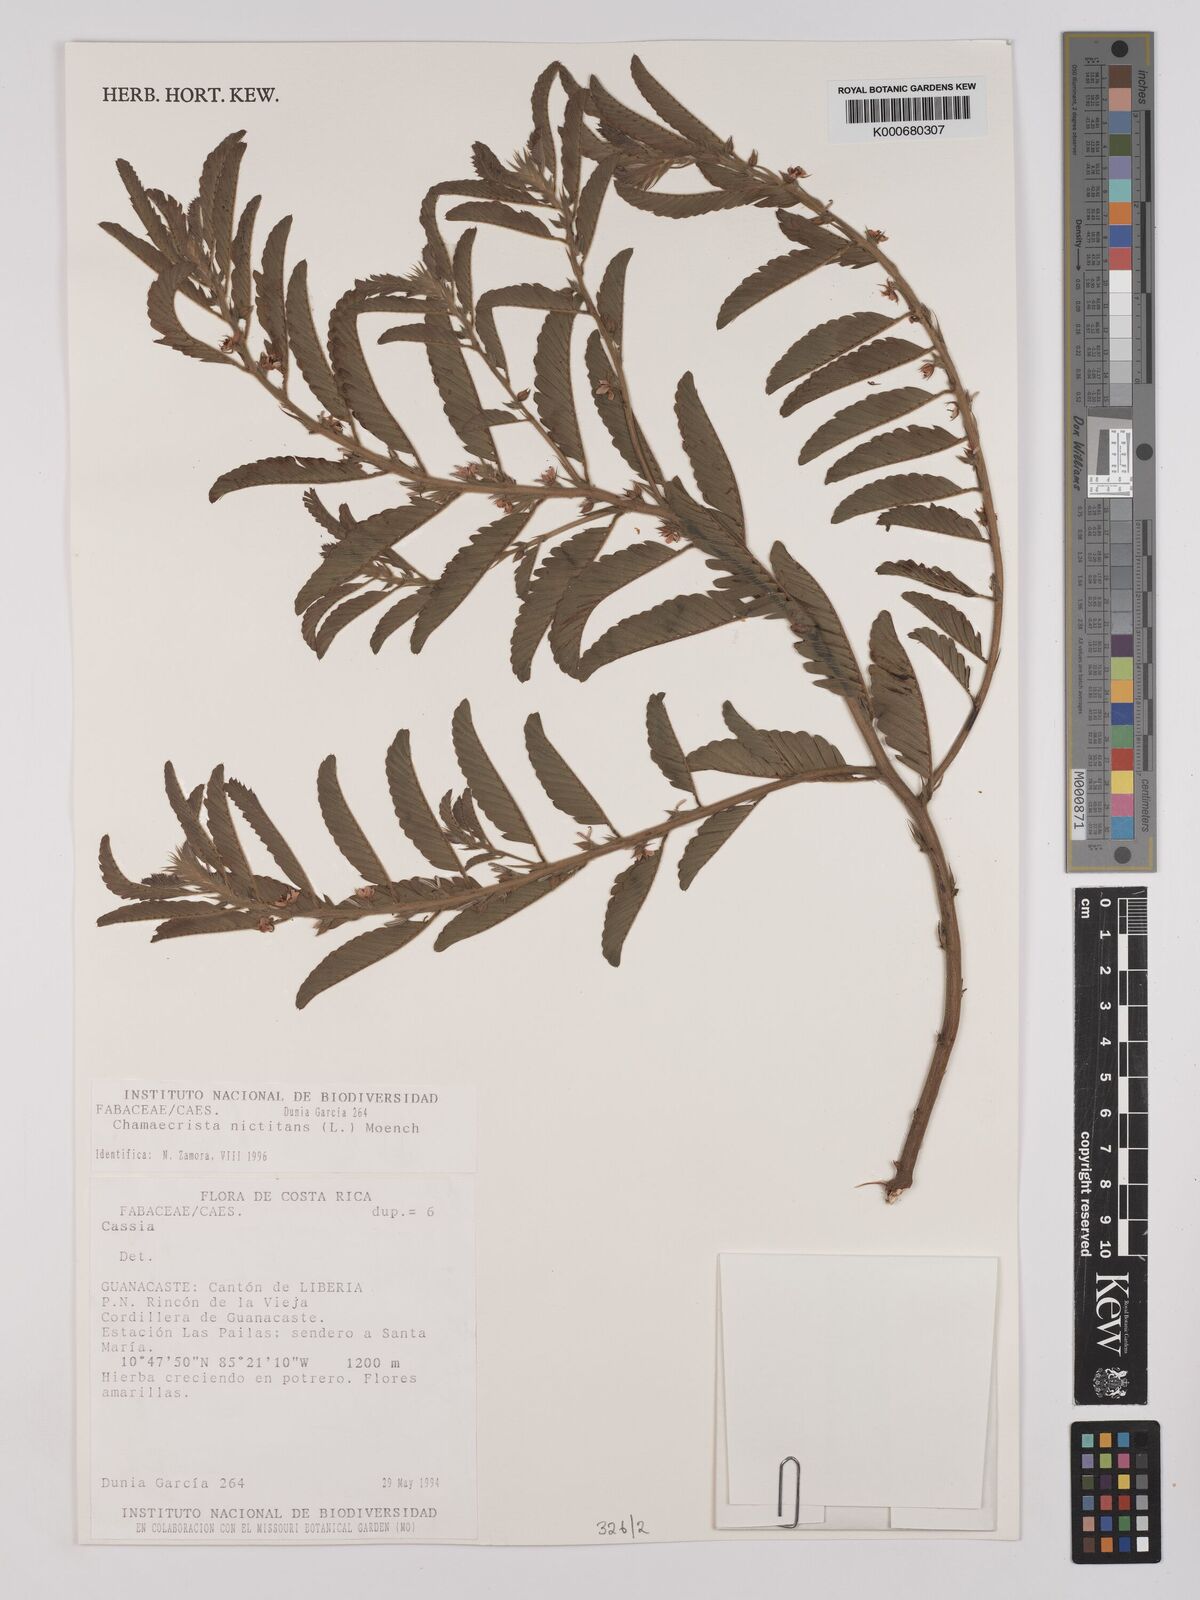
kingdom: Plantae
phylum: Tracheophyta
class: Magnoliopsida
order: Fabales
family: Fabaceae
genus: Chamaecrista
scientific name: Chamaecrista nictitans
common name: Sensitive cassia
